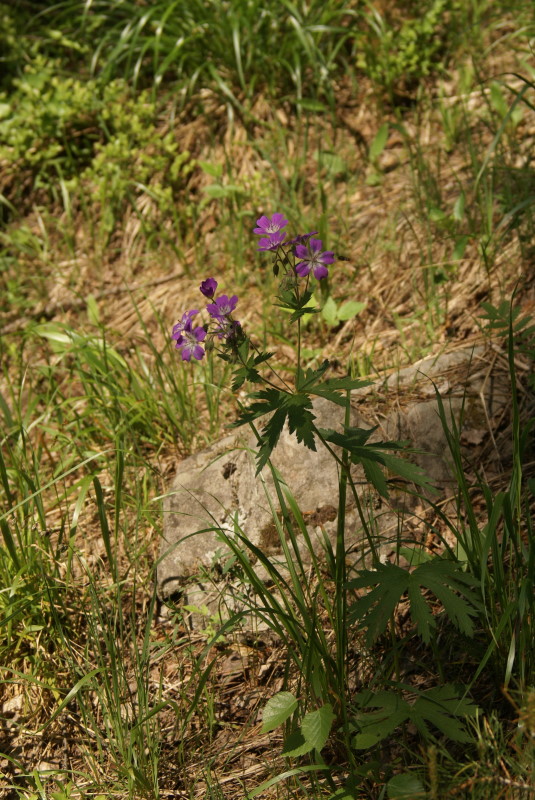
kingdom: Plantae
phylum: Tracheophyta
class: Magnoliopsida
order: Geraniales
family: Geraniaceae
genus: Geranium
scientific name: Geranium sylvaticum
